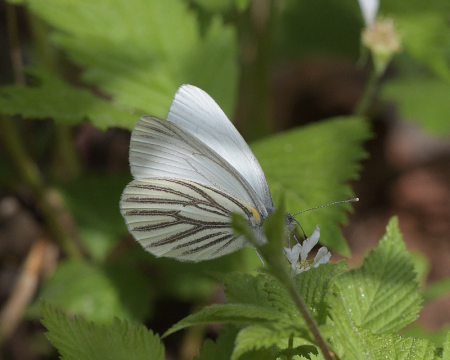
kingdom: Animalia
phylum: Arthropoda
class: Insecta
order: Lepidoptera
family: Pieridae
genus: Pieris
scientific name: Pieris oleracea
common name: Mustard White
